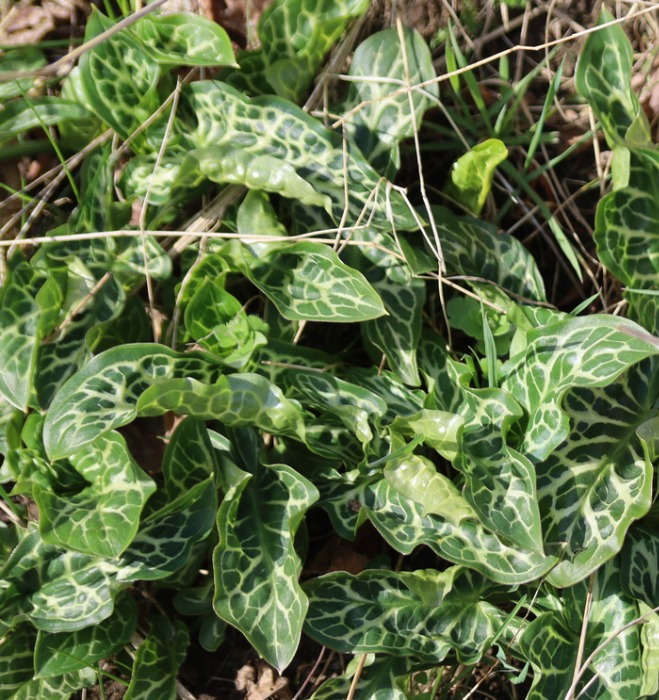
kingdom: Plantae
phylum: Tracheophyta
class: Liliopsida
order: Alismatales
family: Araceae
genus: Arum
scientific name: Arum italicum
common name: Italiensk arum
